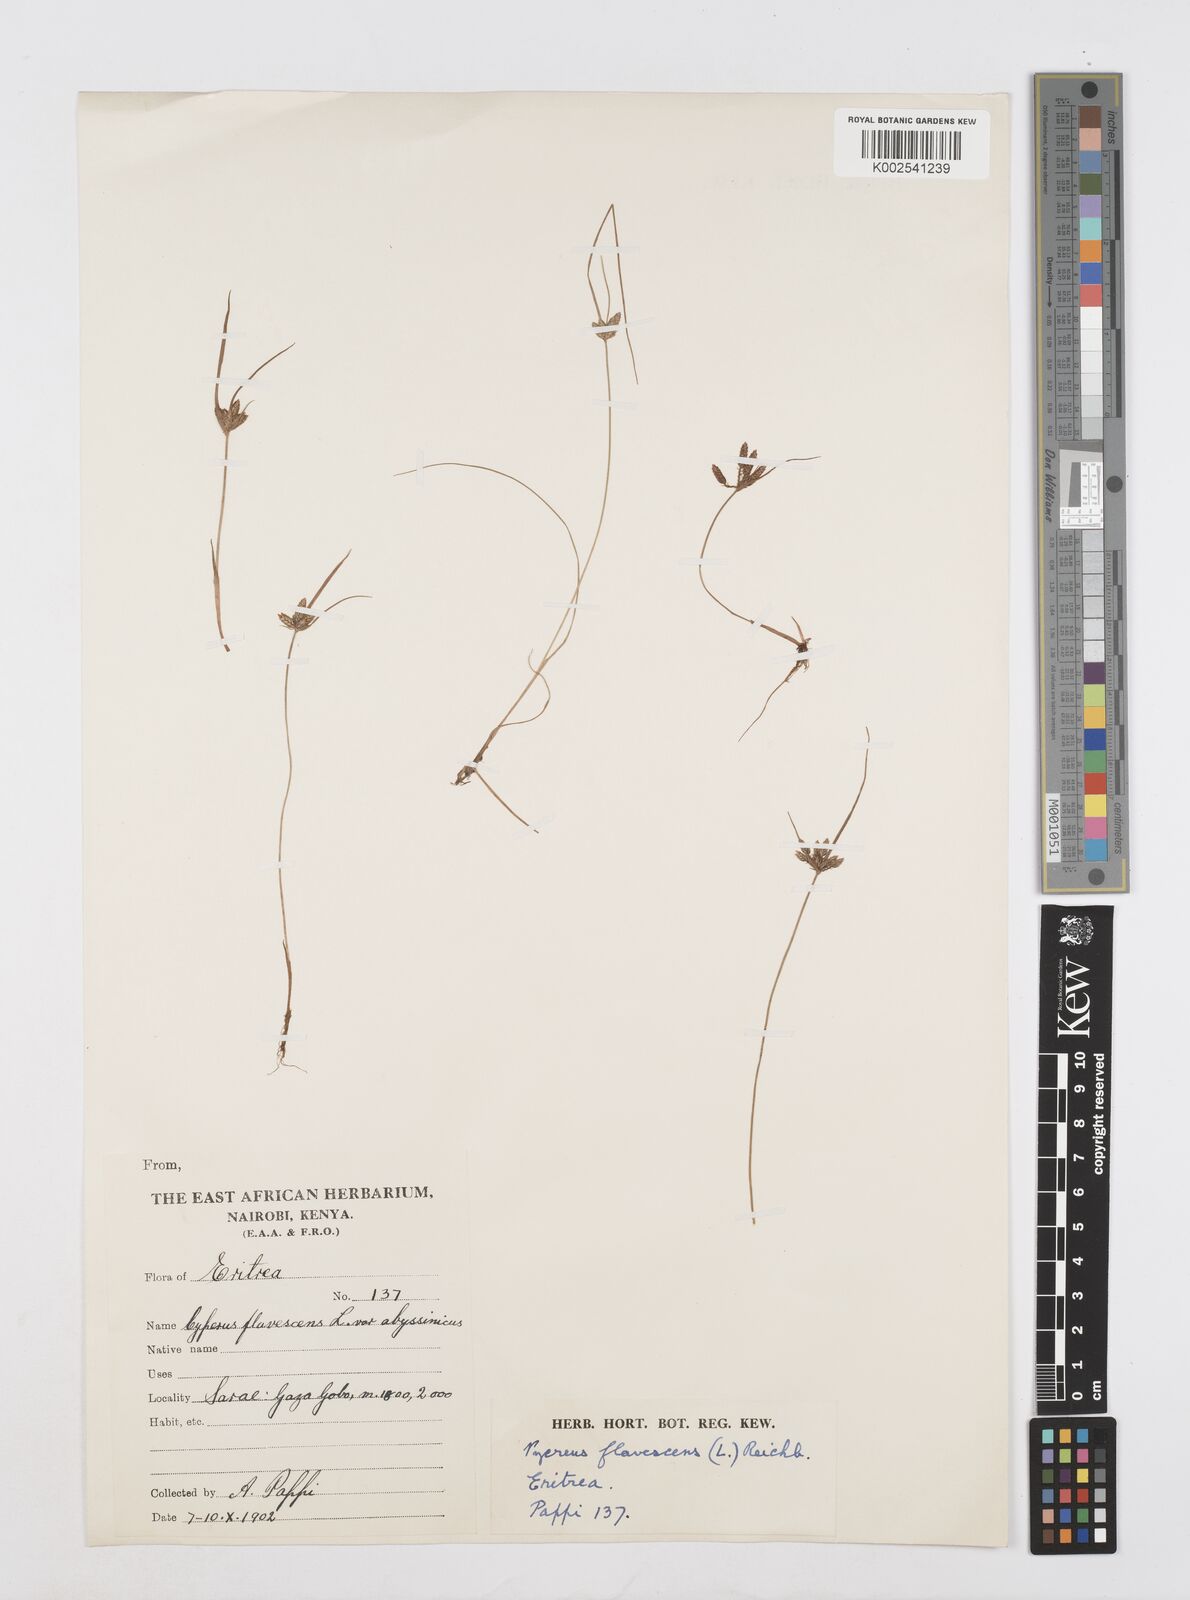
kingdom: Plantae
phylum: Tracheophyta
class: Liliopsida
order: Poales
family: Cyperaceae
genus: Cyperus
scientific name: Cyperus flavescens
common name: Yellow galingale
